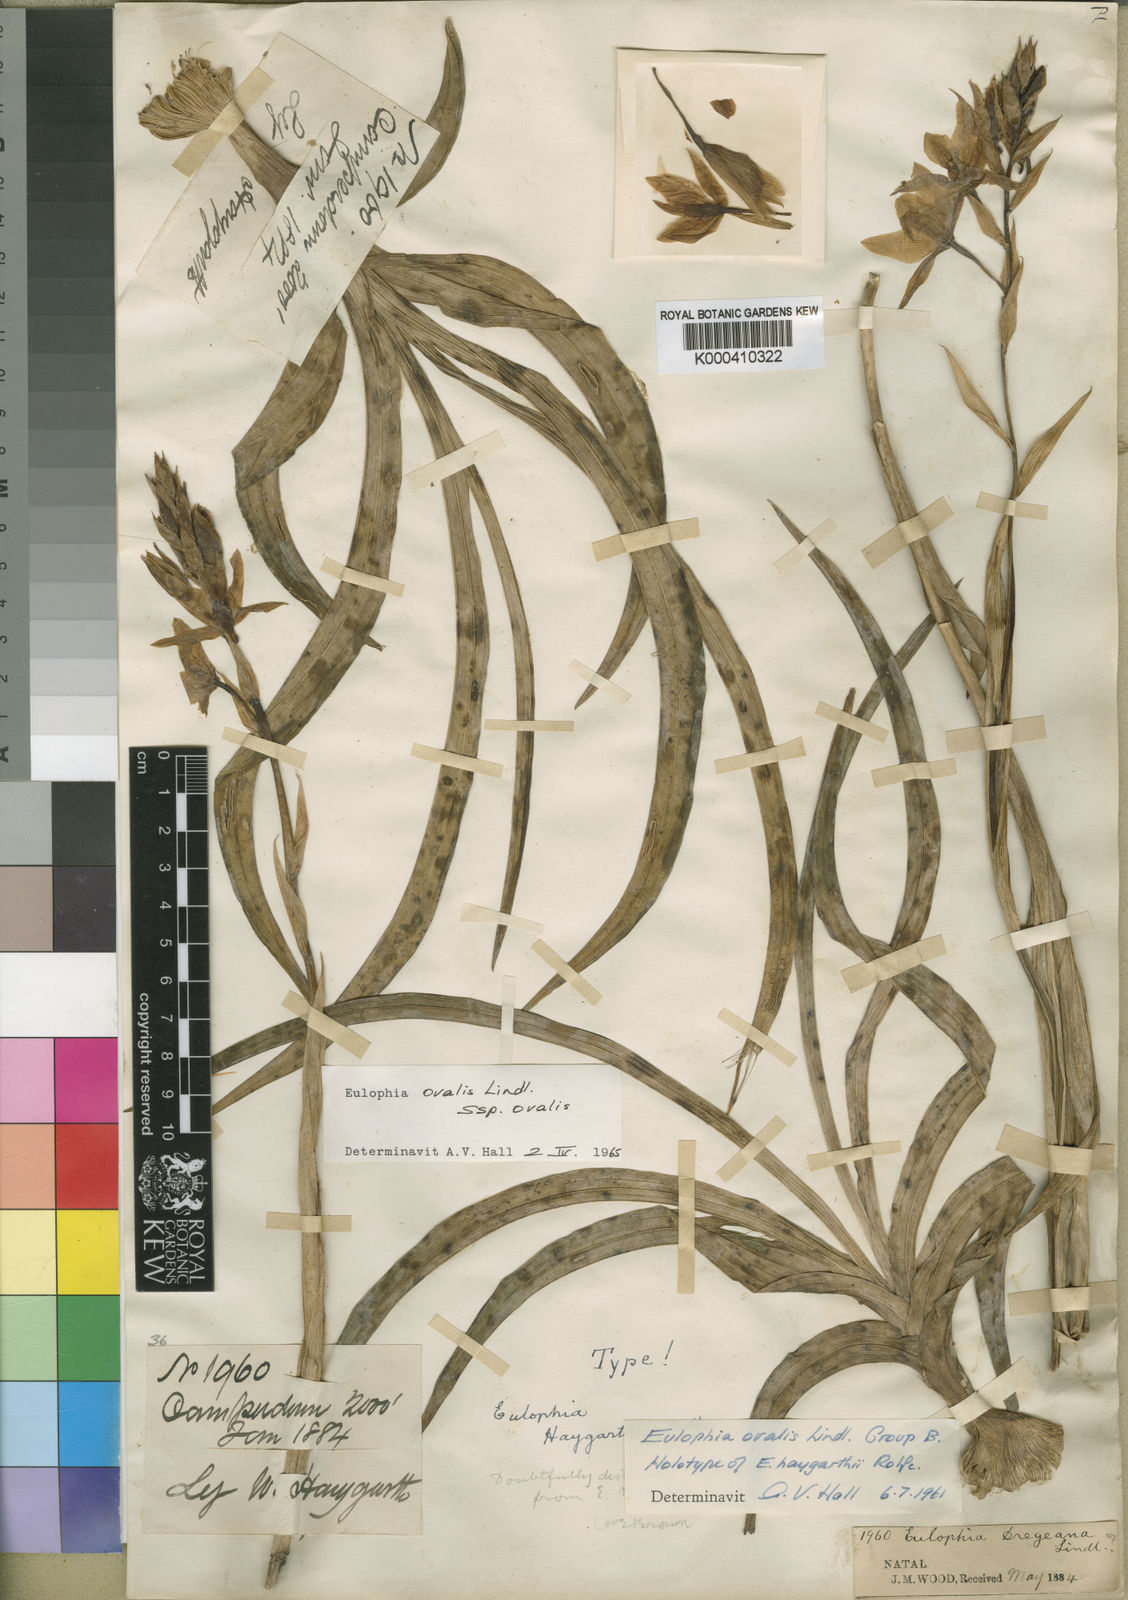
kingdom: Plantae
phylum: Tracheophyta
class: Liliopsida
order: Asparagales
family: Orchidaceae
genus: Eulophia
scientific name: Eulophia ovalis
